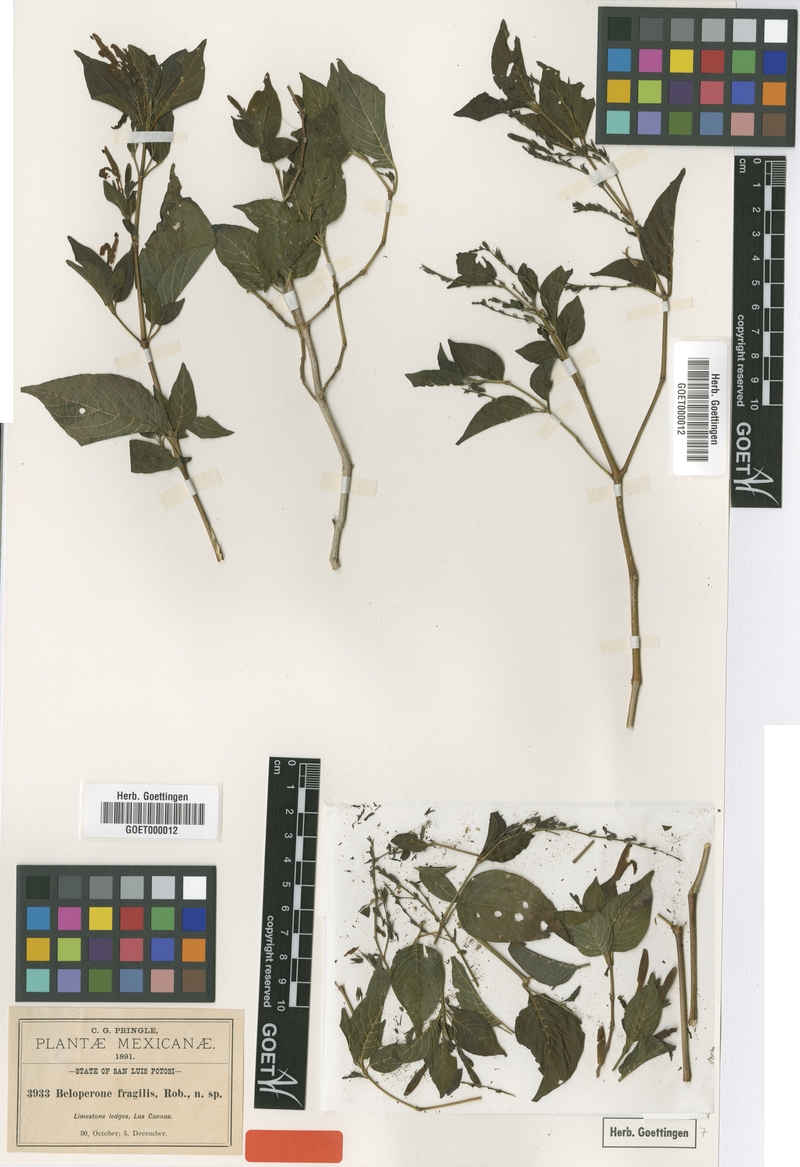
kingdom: Plantae
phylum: Tracheophyta
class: Magnoliopsida
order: Lamiales
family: Acanthaceae
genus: Justicia
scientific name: Justicia tenera
